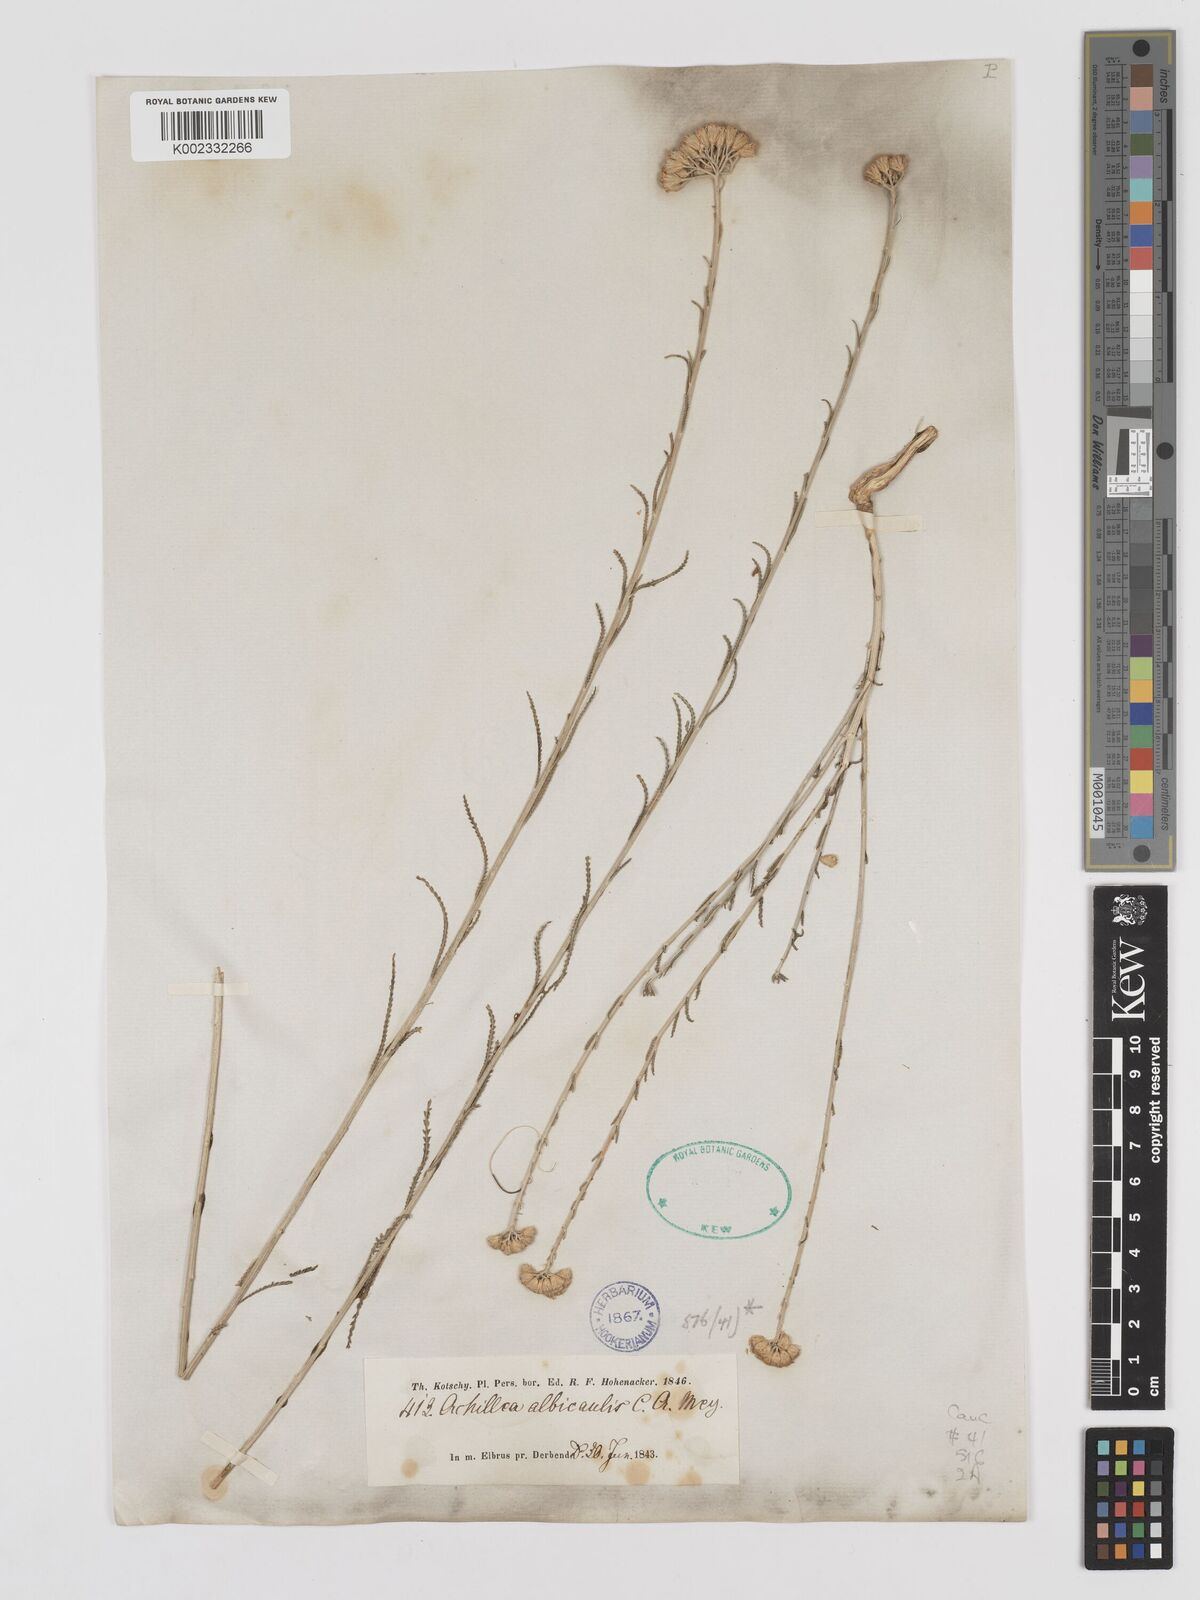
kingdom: Plantae
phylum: Tracheophyta
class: Magnoliopsida
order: Asterales
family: Asteraceae
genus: Achillea
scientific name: Achillea tenuifolia
